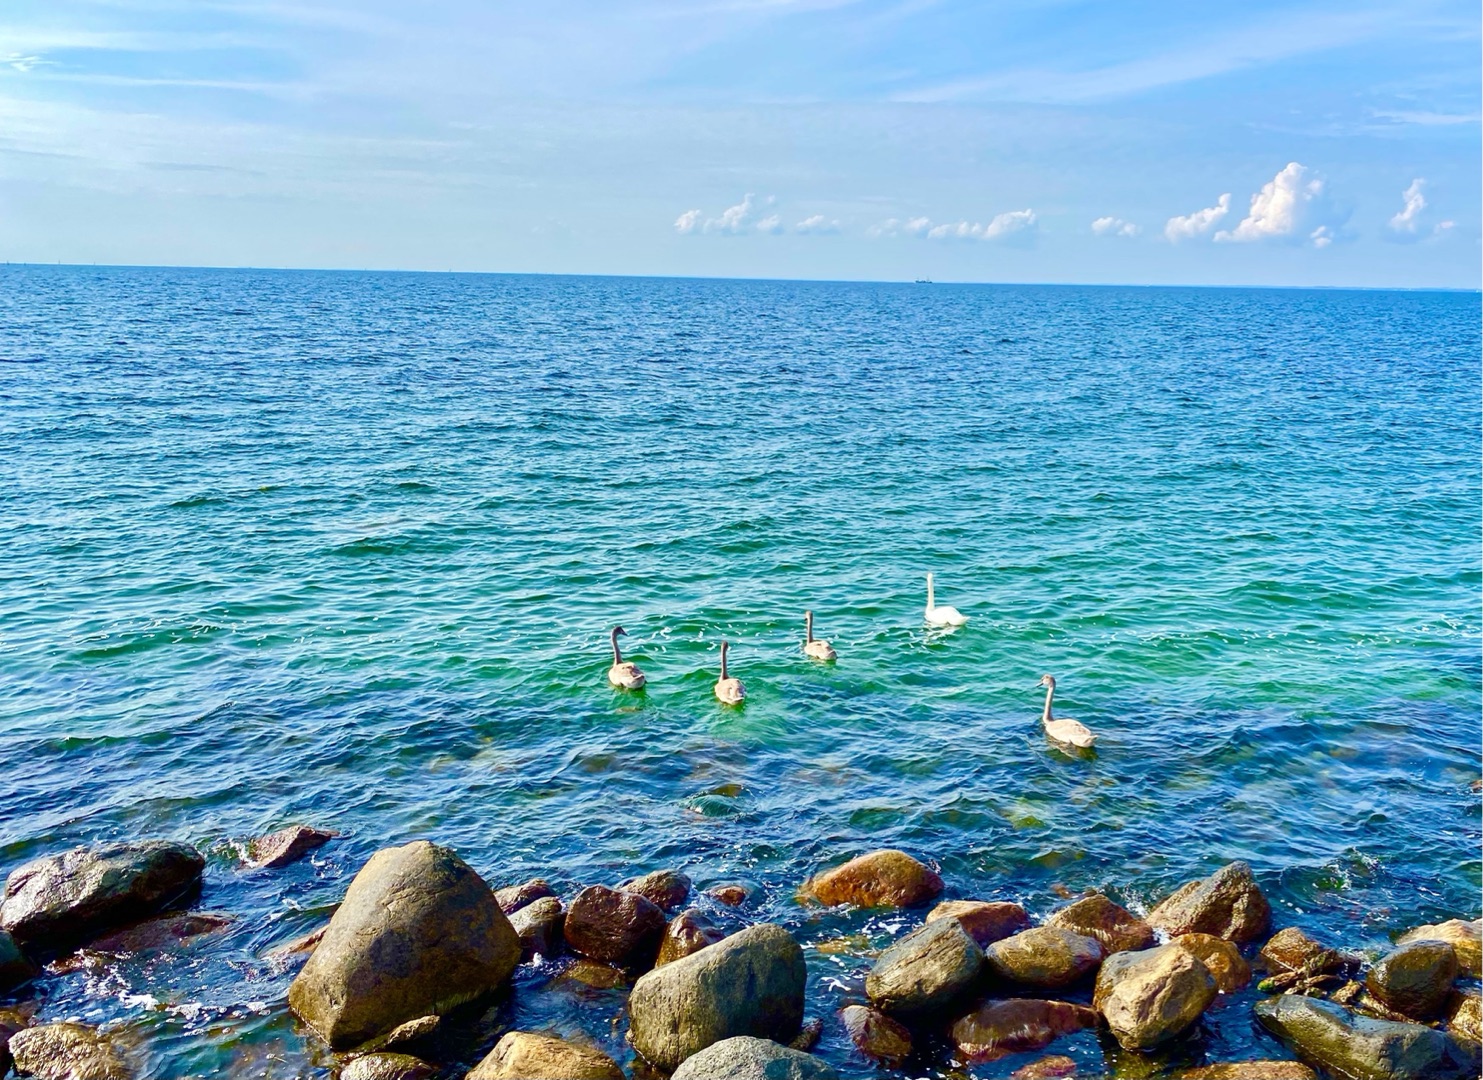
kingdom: Animalia
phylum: Chordata
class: Aves
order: Anseriformes
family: Anatidae
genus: Cygnus
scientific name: Cygnus olor
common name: Knopsvane
